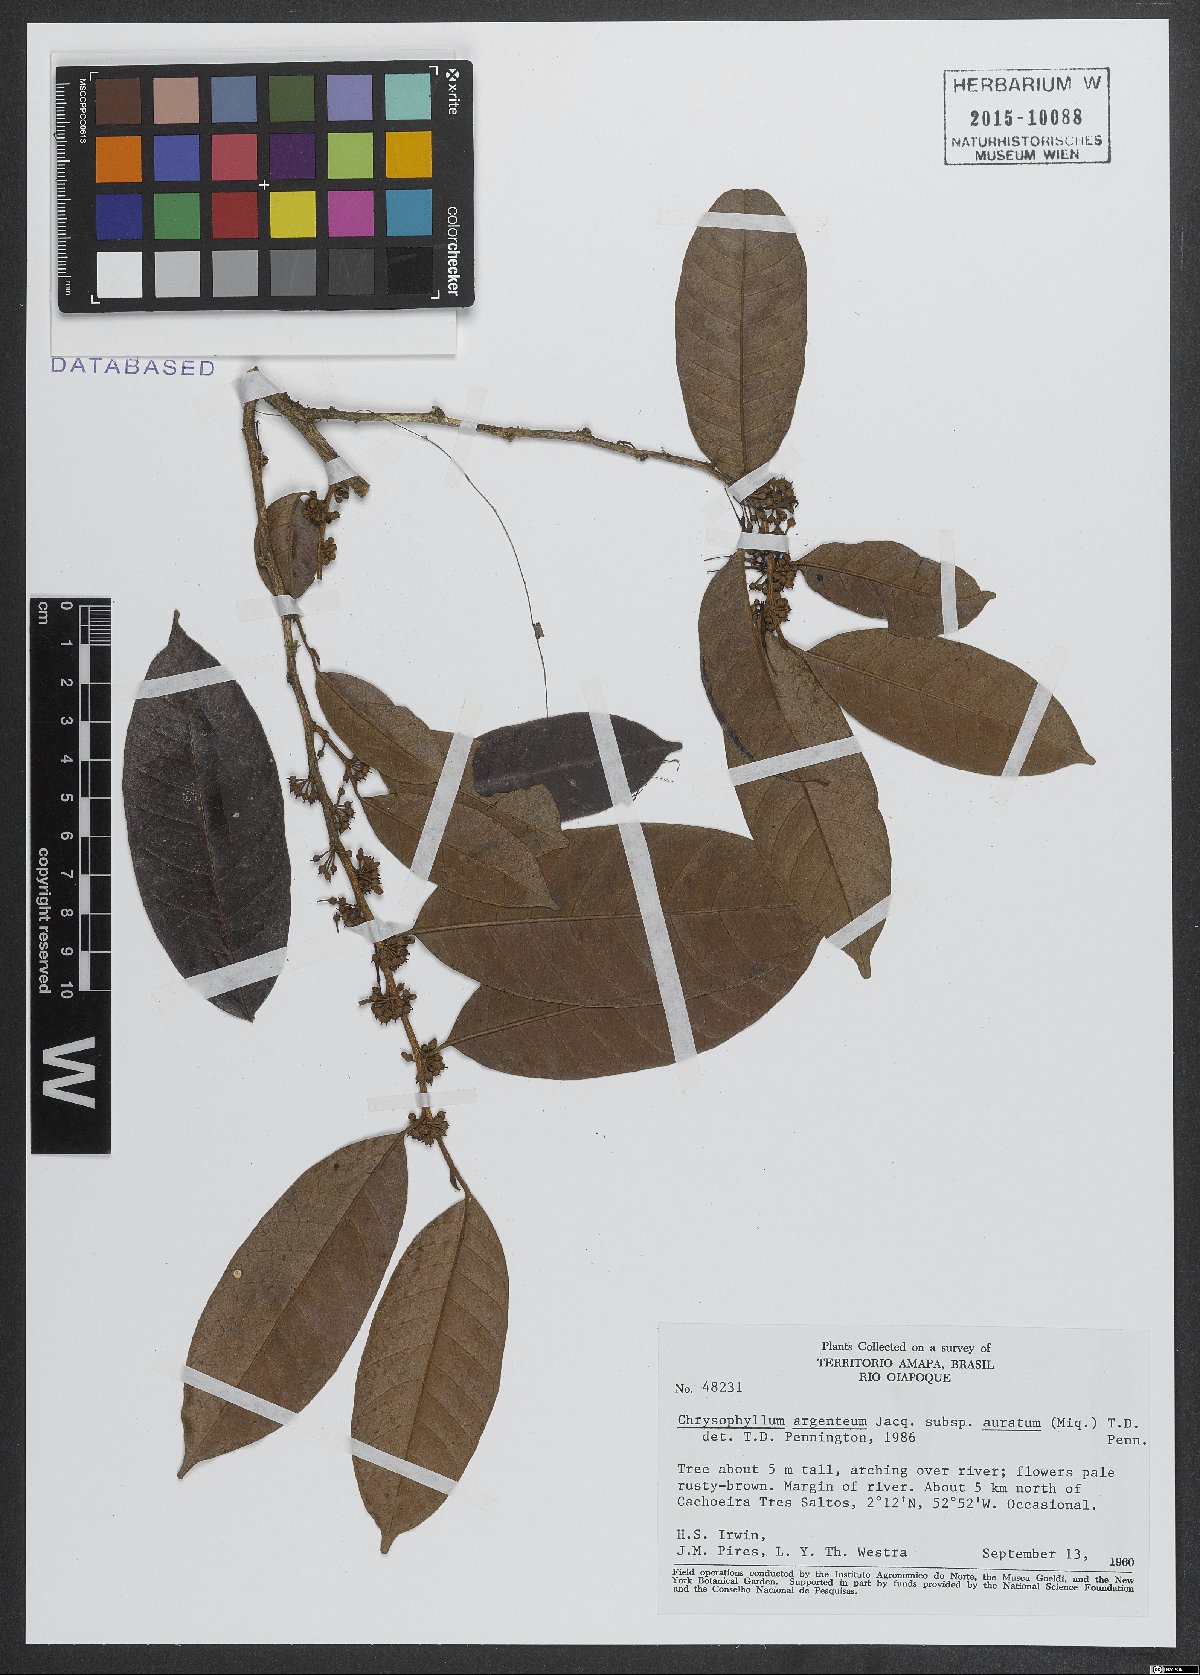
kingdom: Plantae
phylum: Tracheophyta
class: Magnoliopsida
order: Ericales
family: Sapotaceae
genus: Chrysophyllum
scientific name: Chrysophyllum argenteum
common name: Smooth star apple
